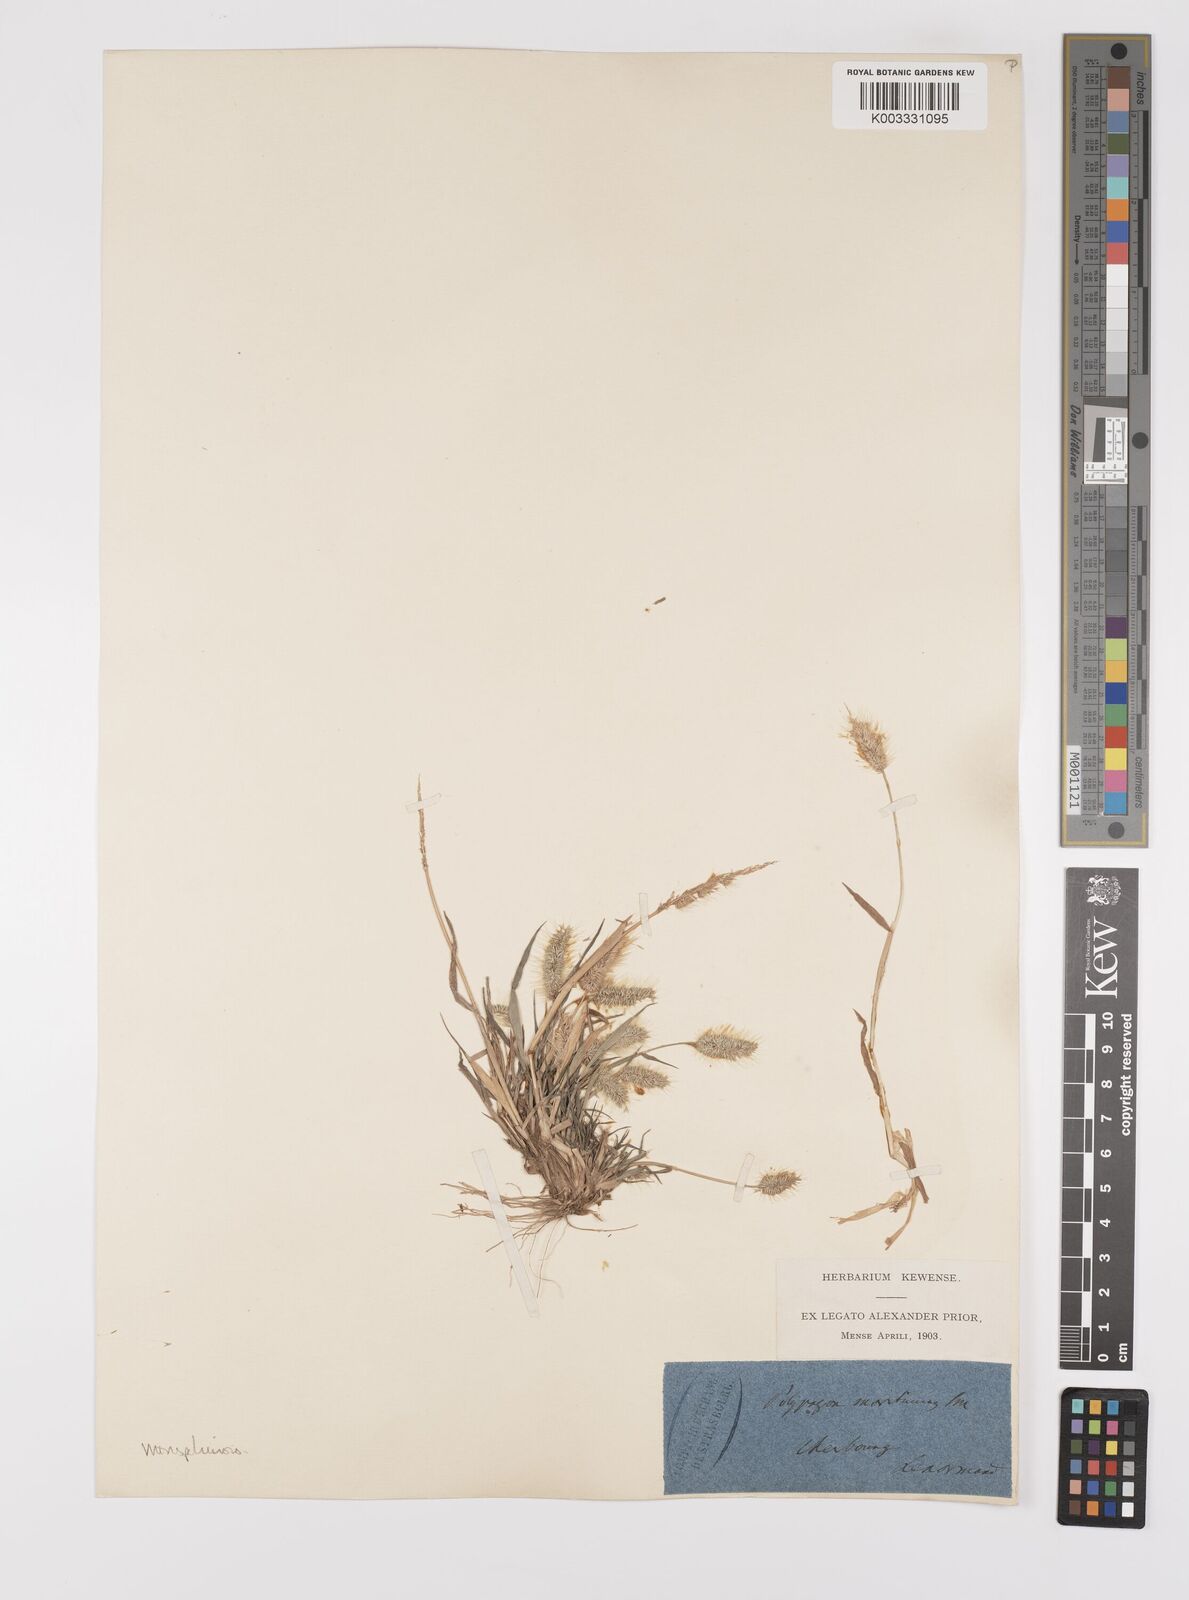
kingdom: Plantae
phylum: Tracheophyta
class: Liliopsida
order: Poales
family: Poaceae
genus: Polypogon
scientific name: Polypogon monspeliensis
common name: Annual rabbitsfoot grass
